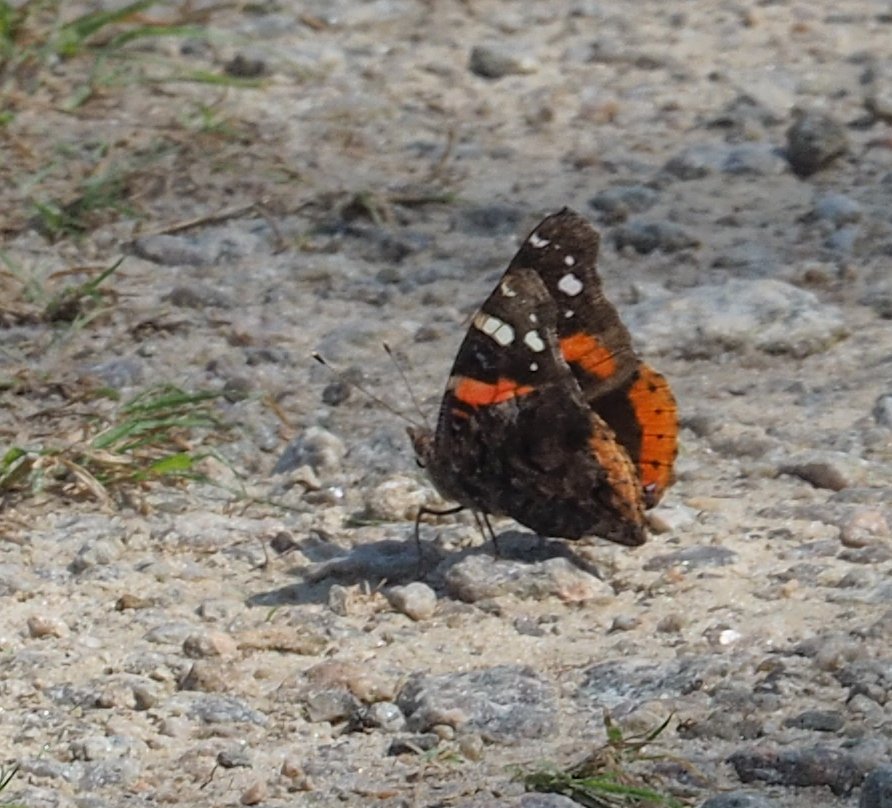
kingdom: Animalia
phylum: Arthropoda
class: Insecta
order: Lepidoptera
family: Nymphalidae
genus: Vanessa
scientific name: Vanessa atalanta
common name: Red Admiral
